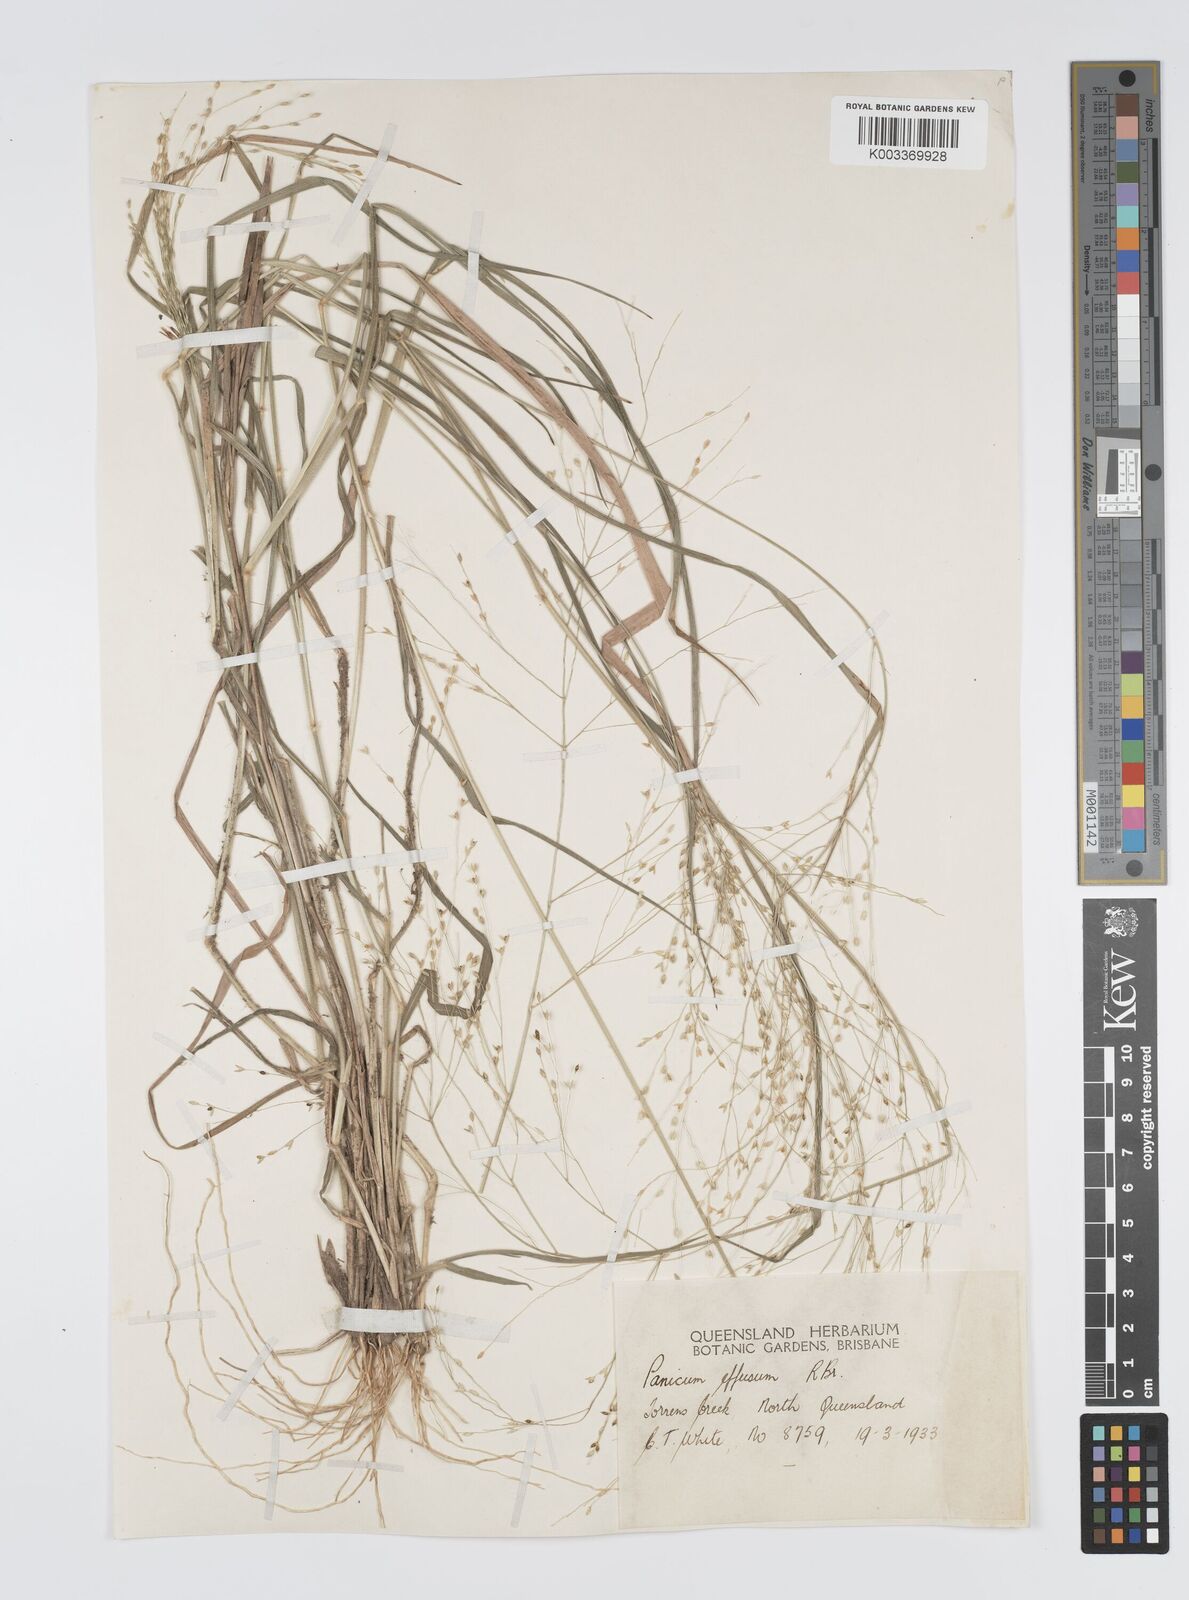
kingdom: Plantae
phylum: Tracheophyta
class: Liliopsida
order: Poales
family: Poaceae
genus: Panicum
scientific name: Panicum effusum
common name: Hairy panic grass
